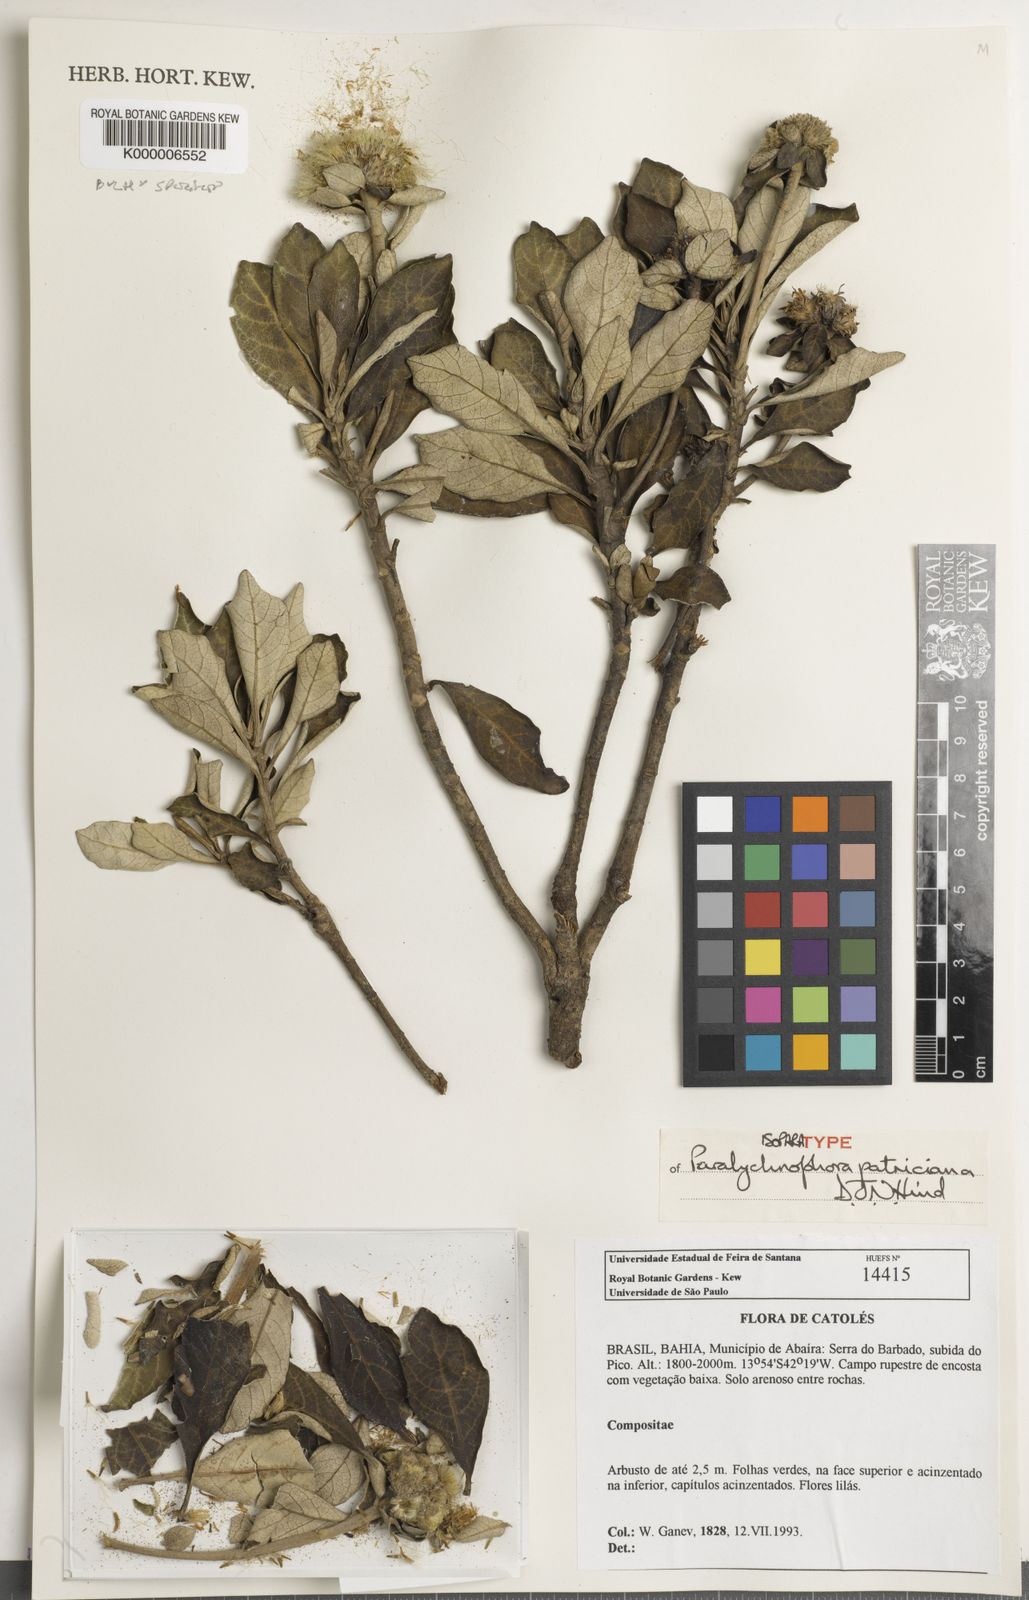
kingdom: Plantae
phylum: Tracheophyta
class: Magnoliopsida
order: Asterales
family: Asteraceae
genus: Paralychnophora
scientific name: Paralychnophora patriciana
